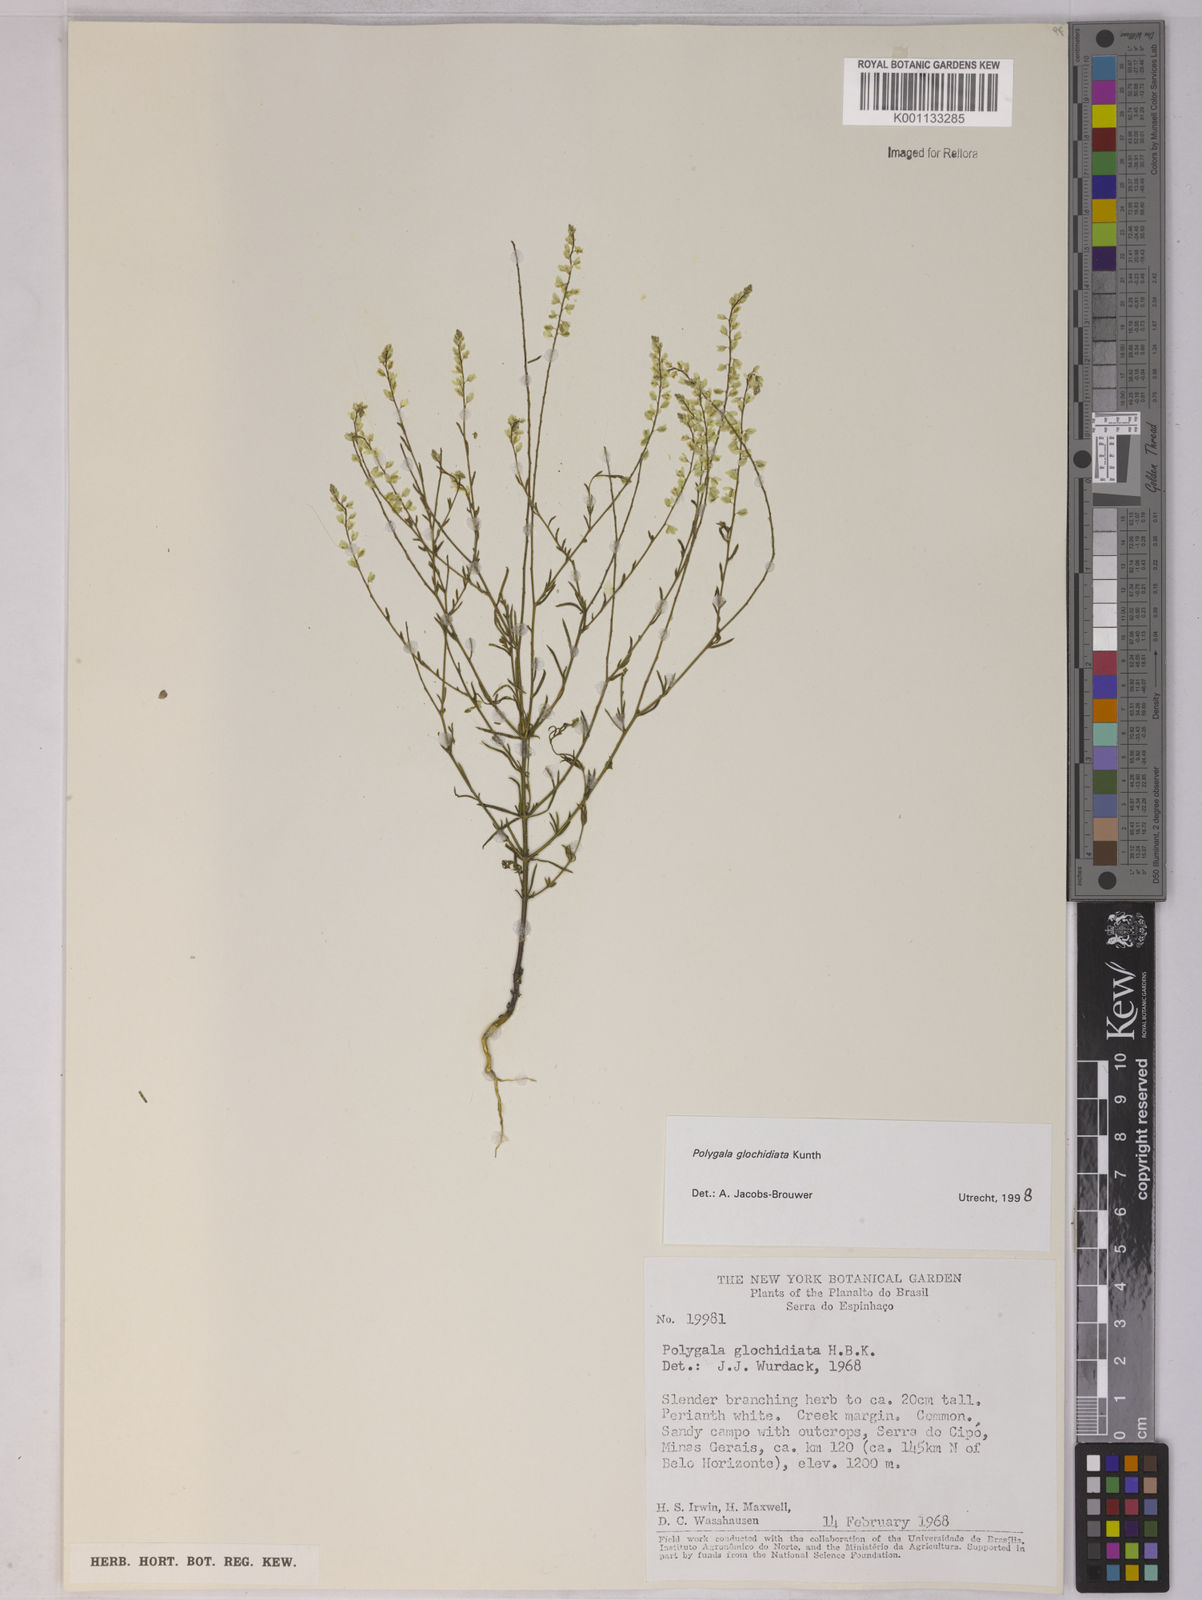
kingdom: Plantae
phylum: Tracheophyta
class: Magnoliopsida
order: Fabales
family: Polygalaceae
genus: Polygala
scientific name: Polygala glochidiata
